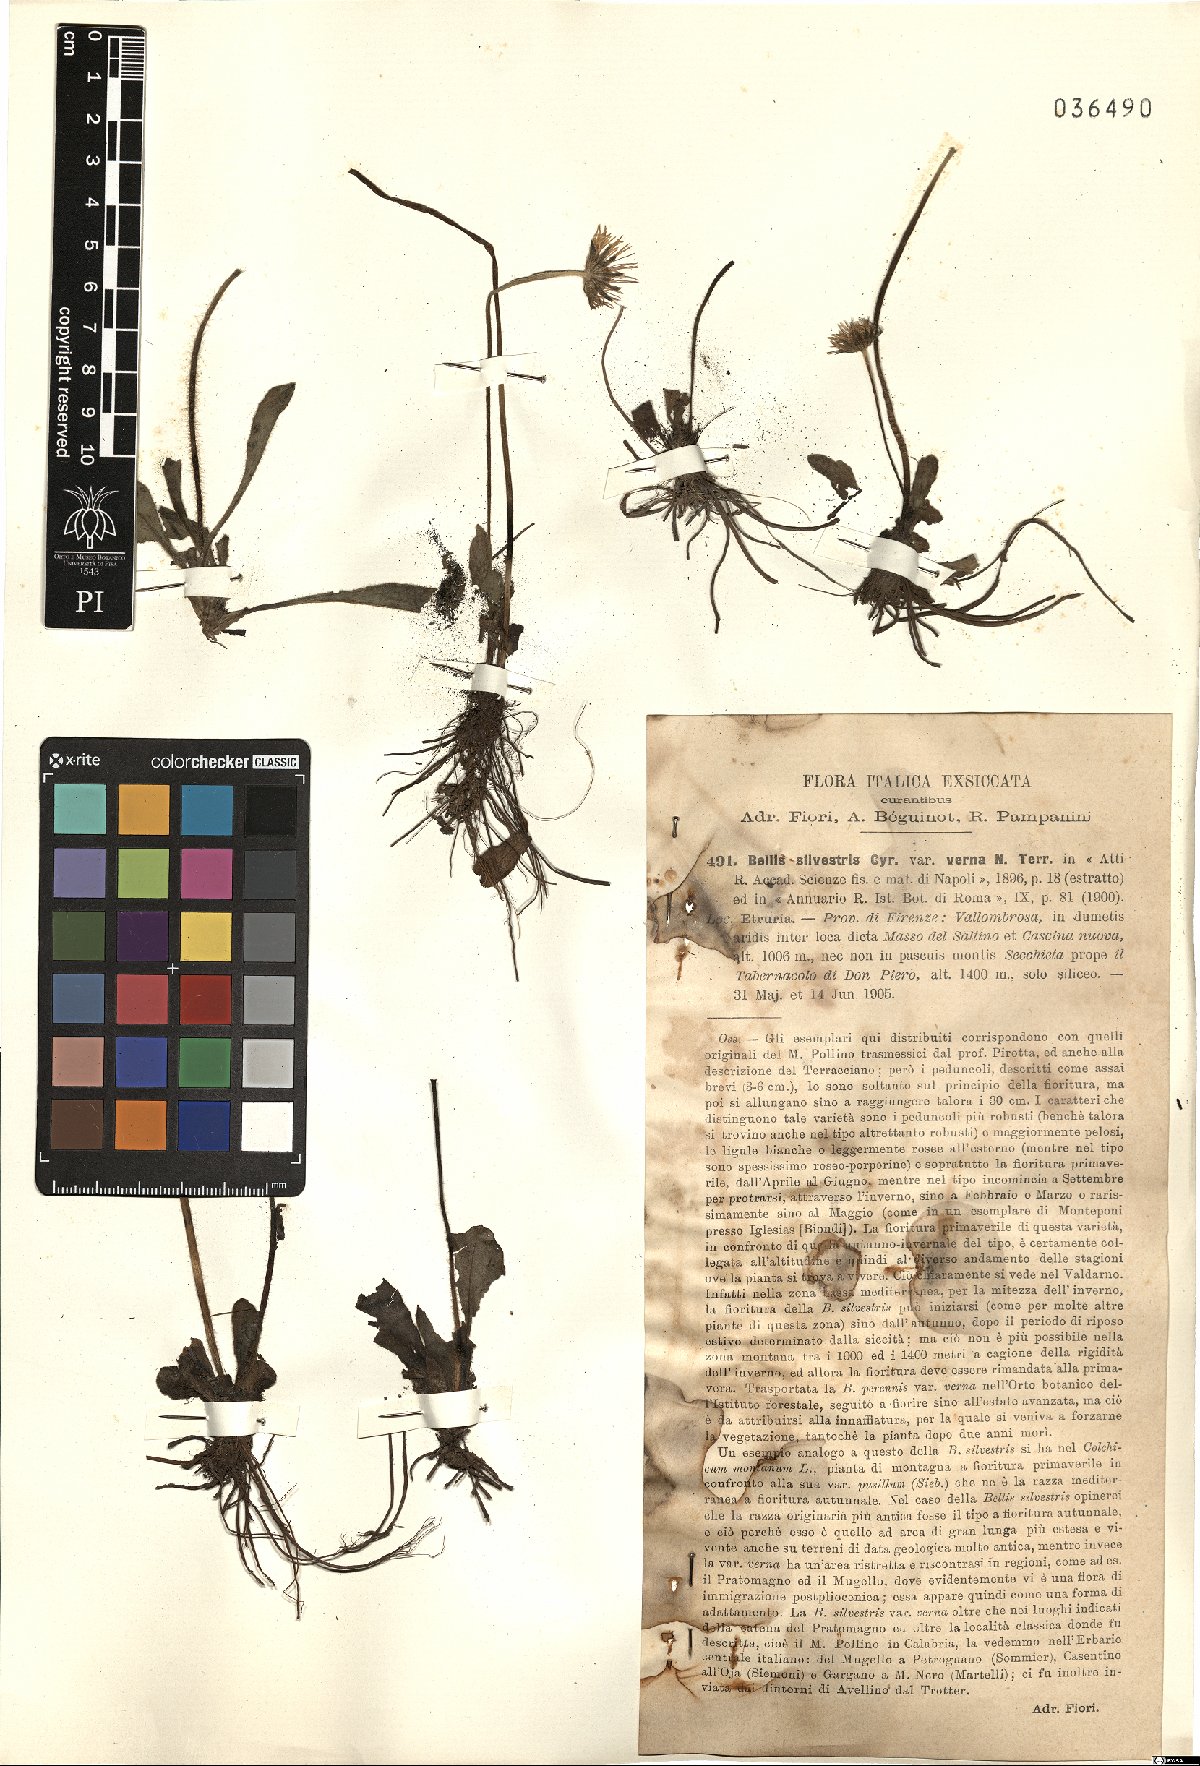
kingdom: Plantae
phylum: Tracheophyta
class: Magnoliopsida
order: Asterales
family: Asteraceae
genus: Bellis
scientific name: Bellis sylvestris
